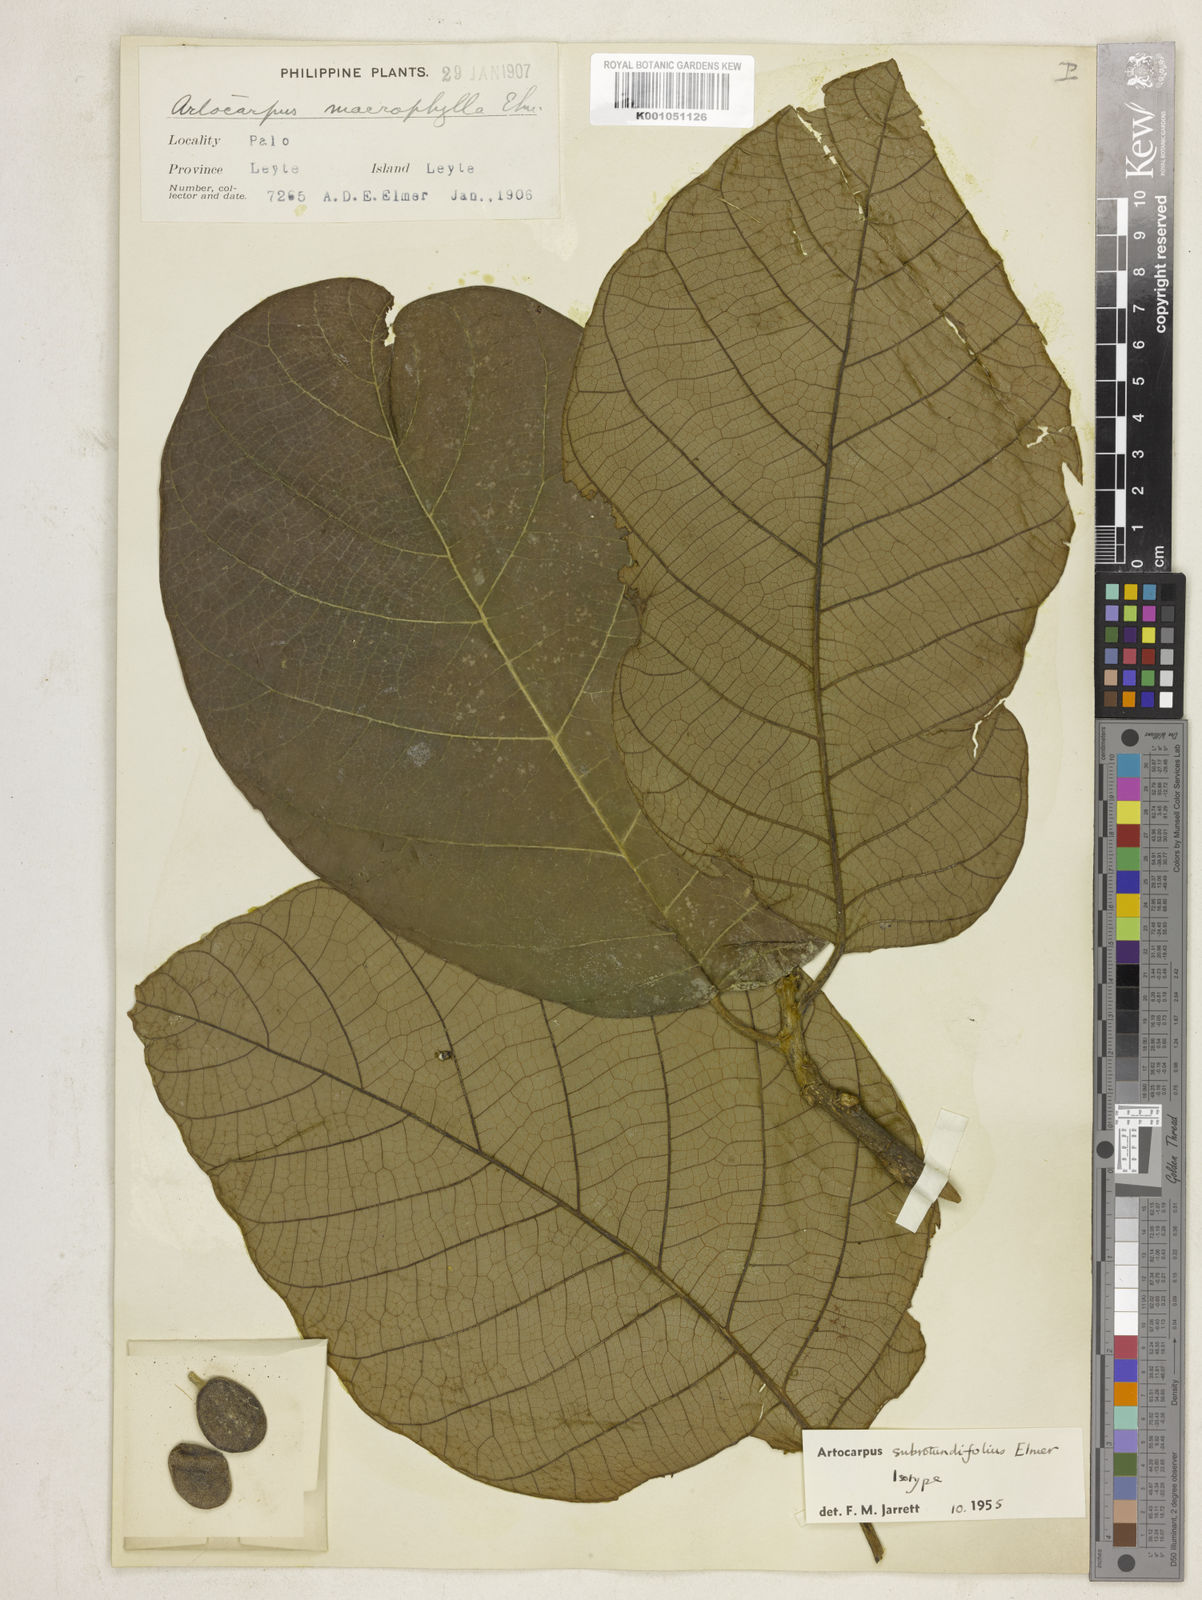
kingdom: Plantae
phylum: Tracheophyta
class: Magnoliopsida
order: Rosales
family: Moraceae
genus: Artocarpus
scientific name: Artocarpus subrotundifolius
